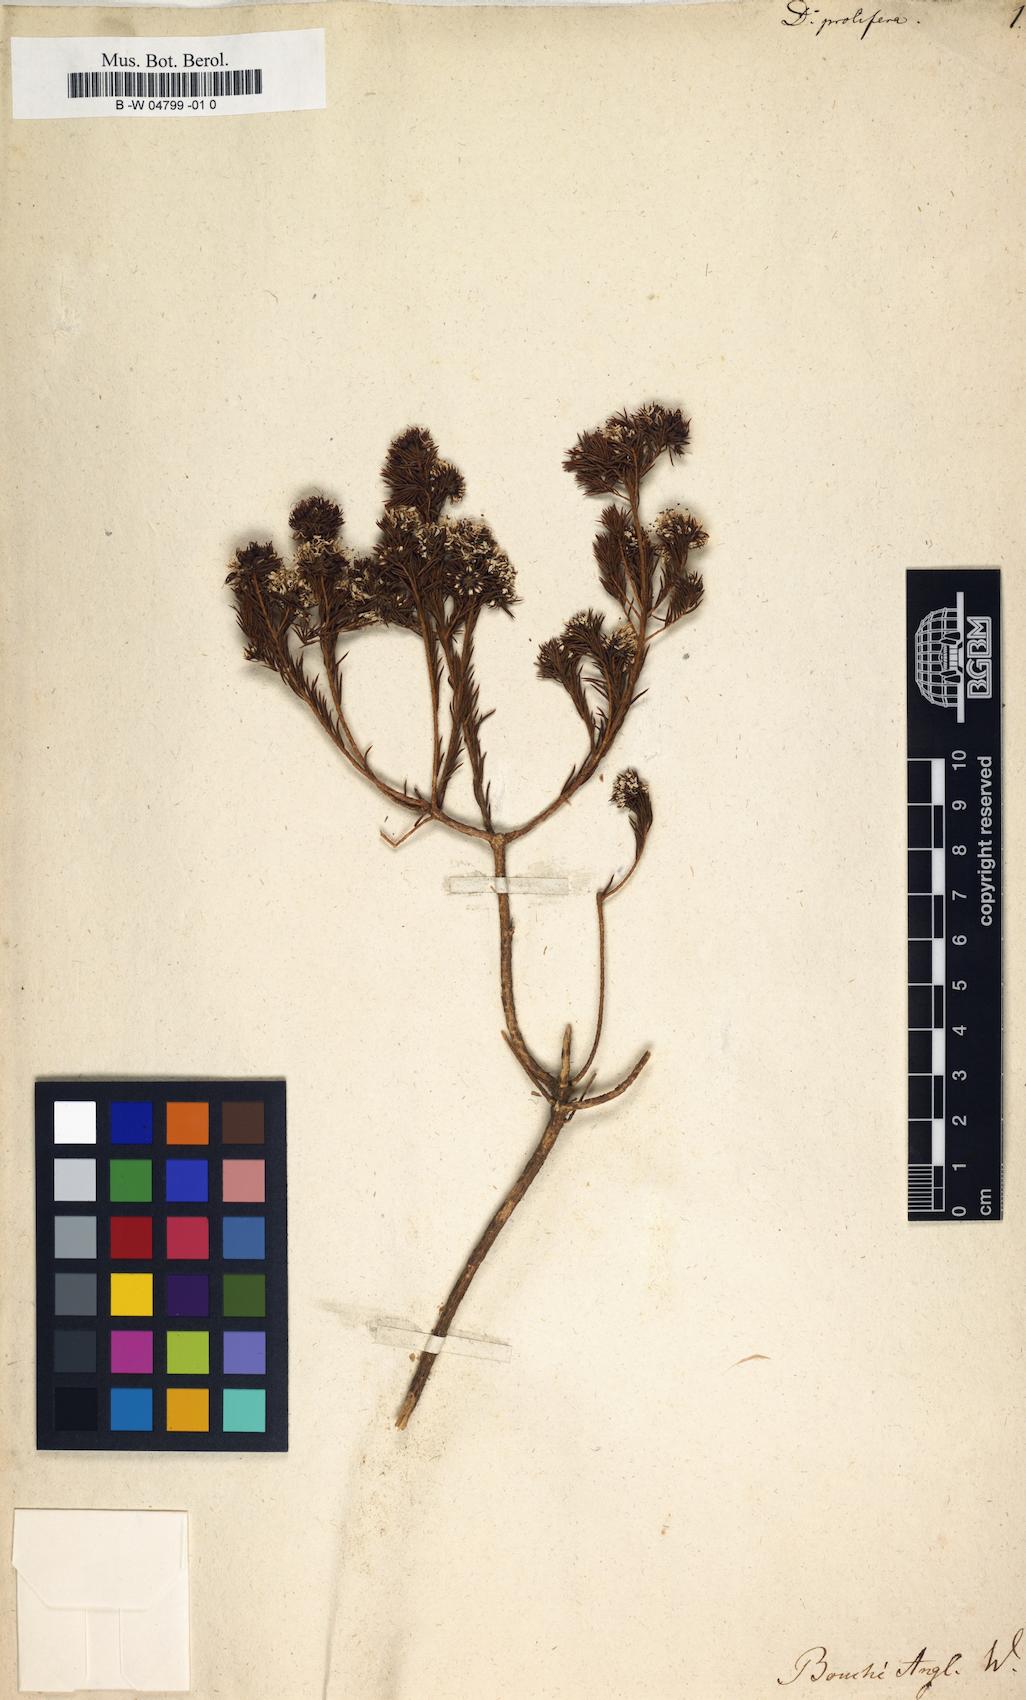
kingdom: Plantae
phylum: Tracheophyta
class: Magnoliopsida
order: Sapindales
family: Rutaceae
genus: Agathosma
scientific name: Agathosma bisulca
